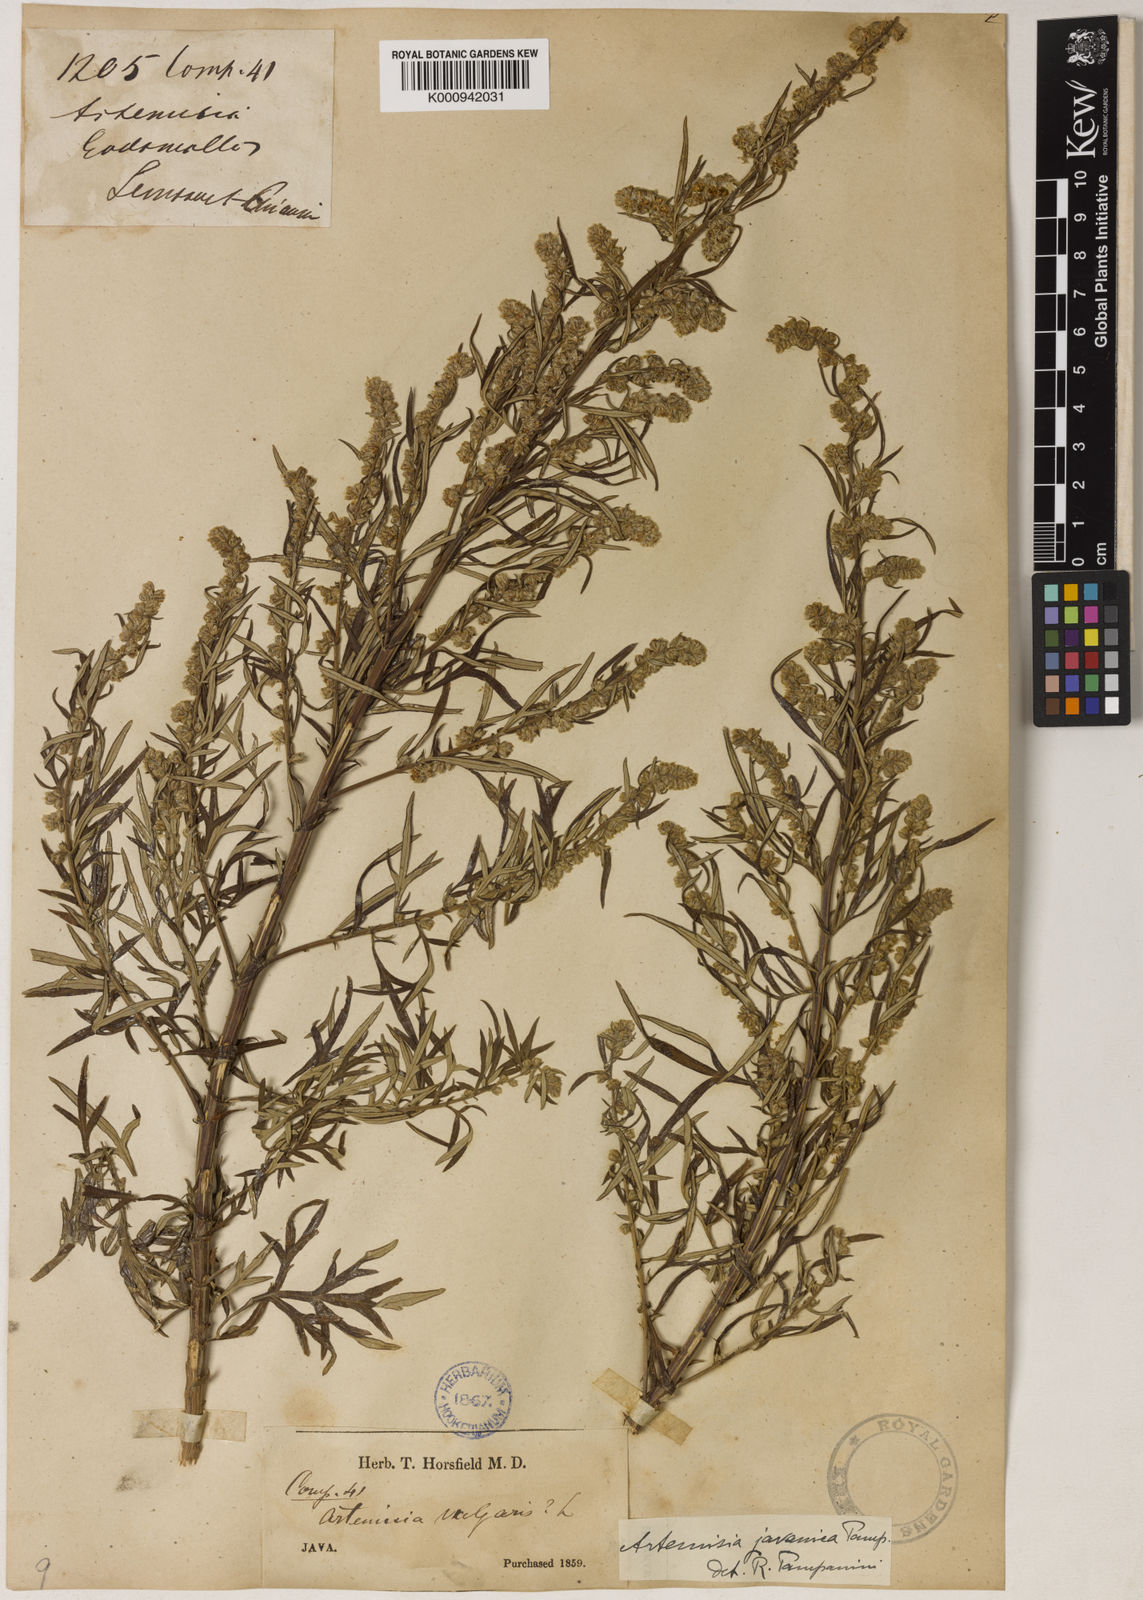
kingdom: Plantae
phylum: Tracheophyta
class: Magnoliopsida
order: Asterales
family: Asteraceae
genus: Artemisia
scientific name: Artemisia javanica
